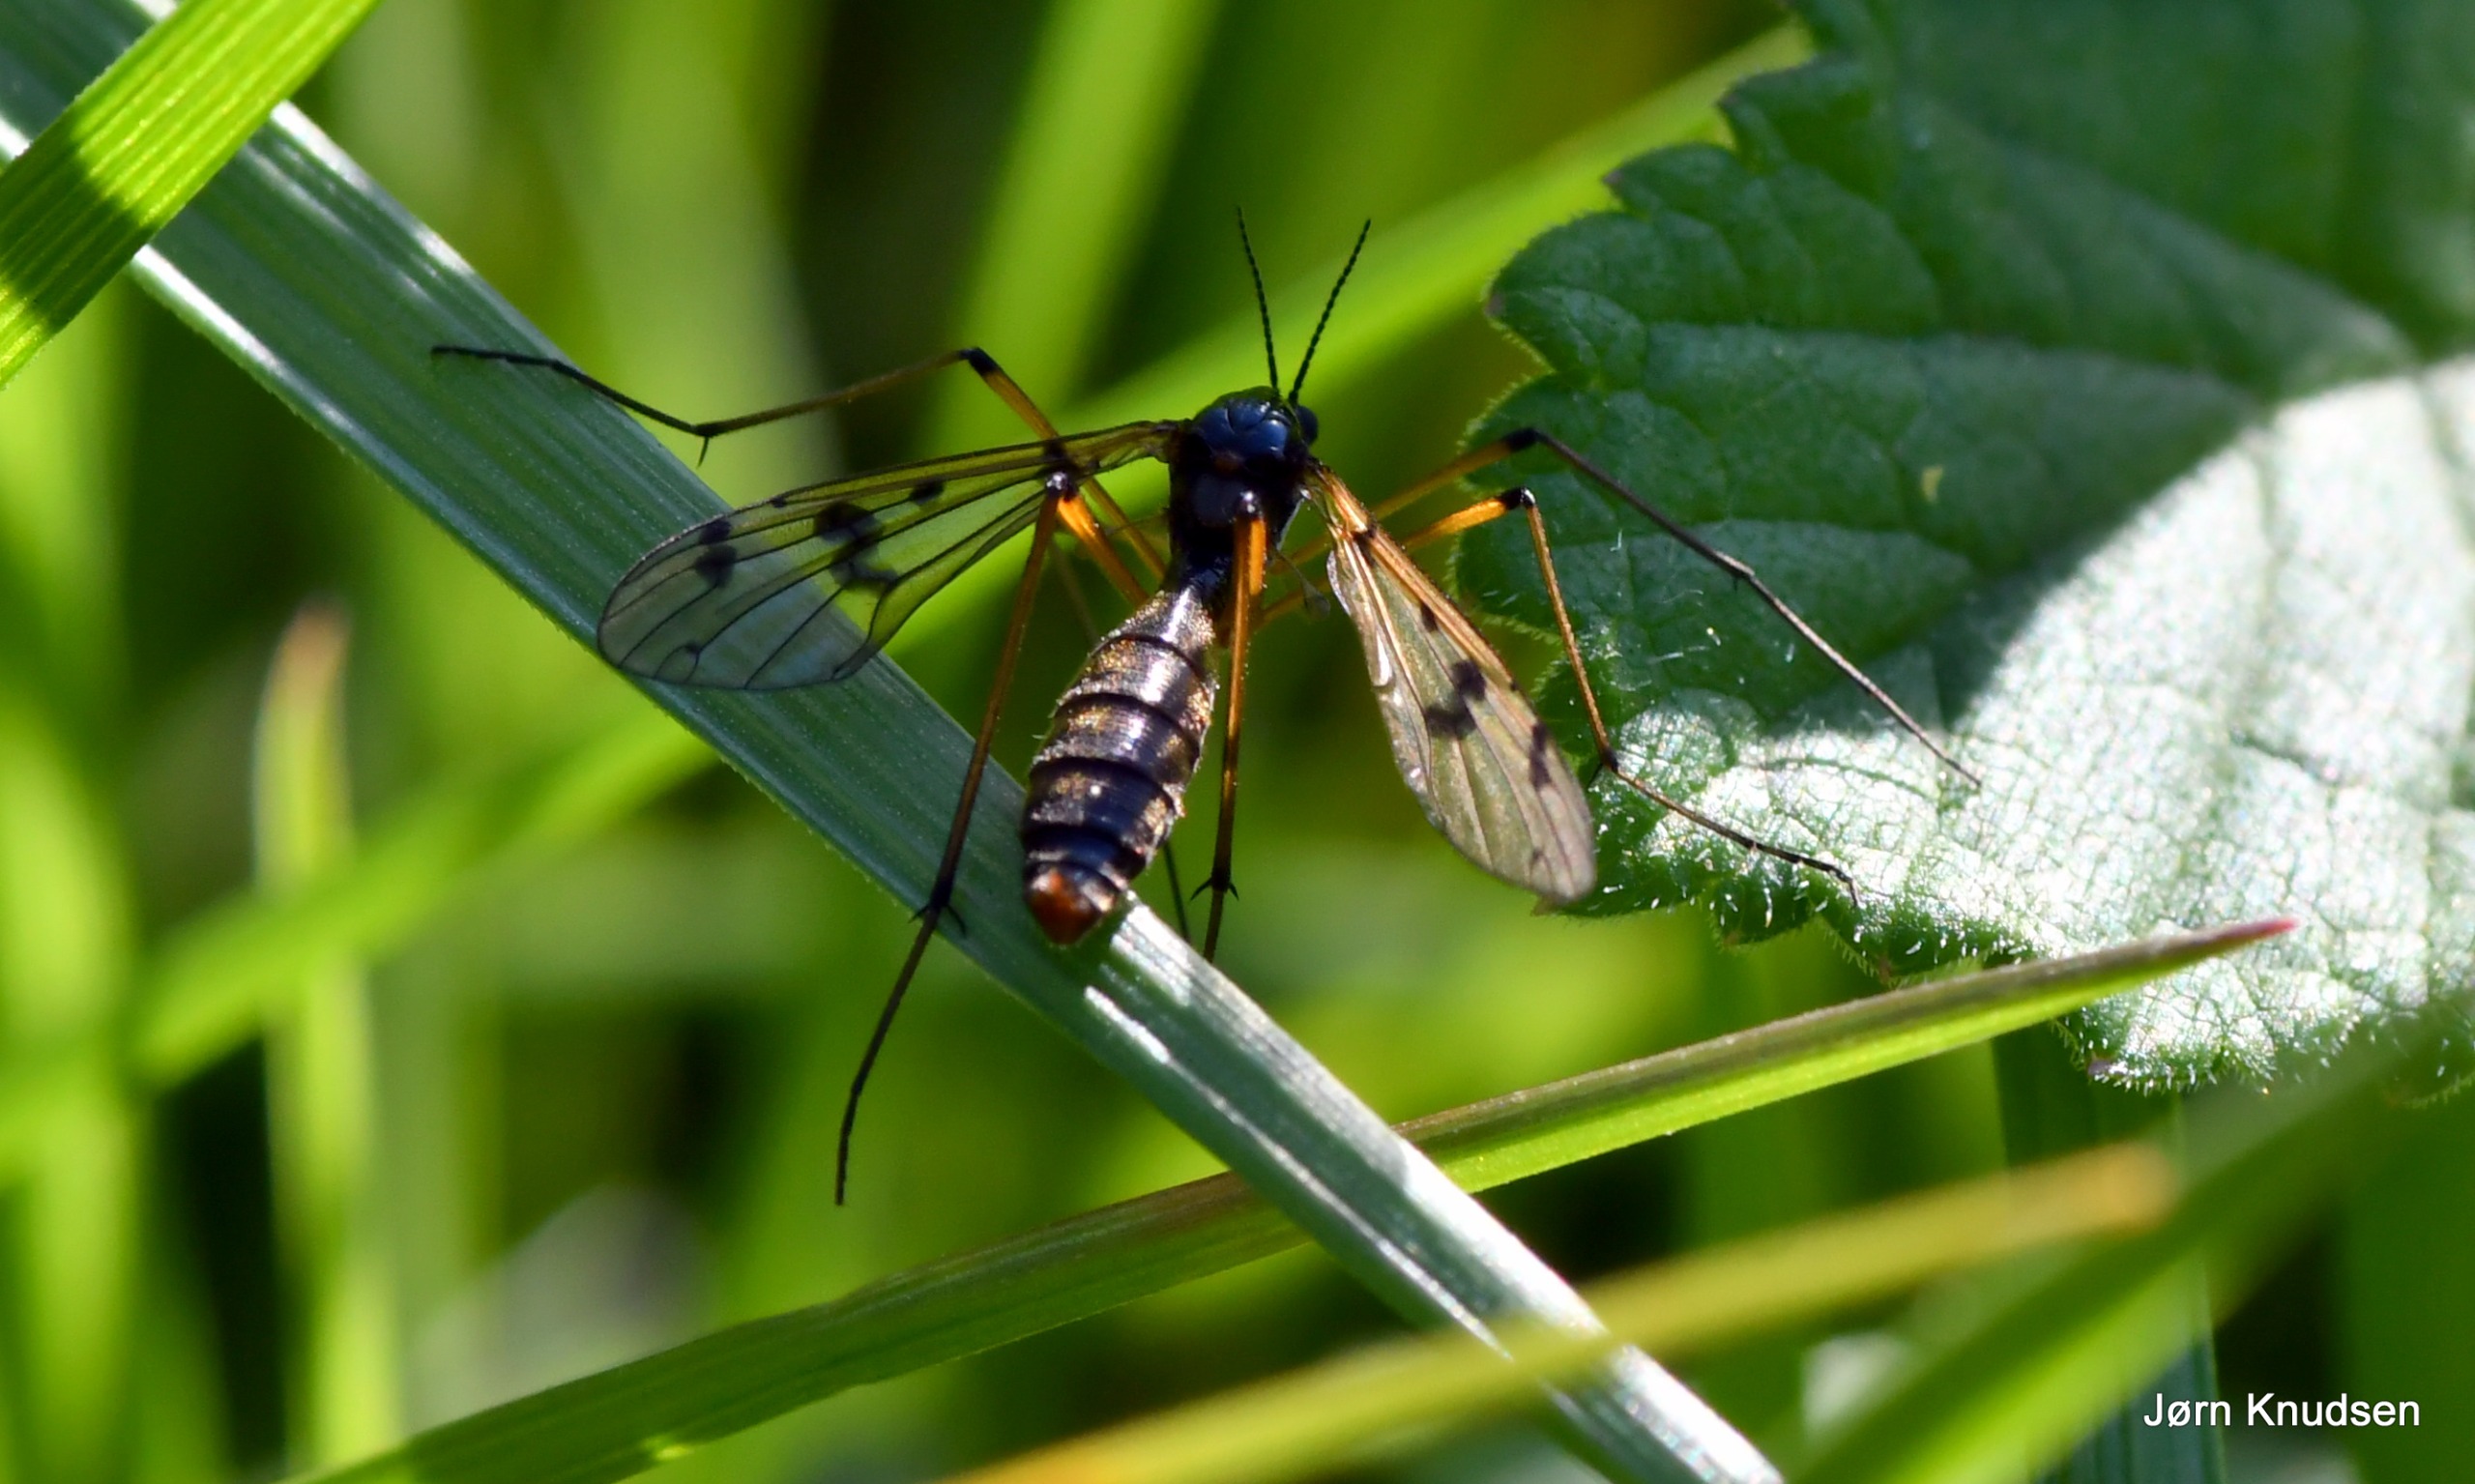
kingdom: Animalia
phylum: Arthropoda
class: Insecta
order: Diptera
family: Ptychopteridae
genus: Ptychoptera
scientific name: Ptychoptera contaminata
